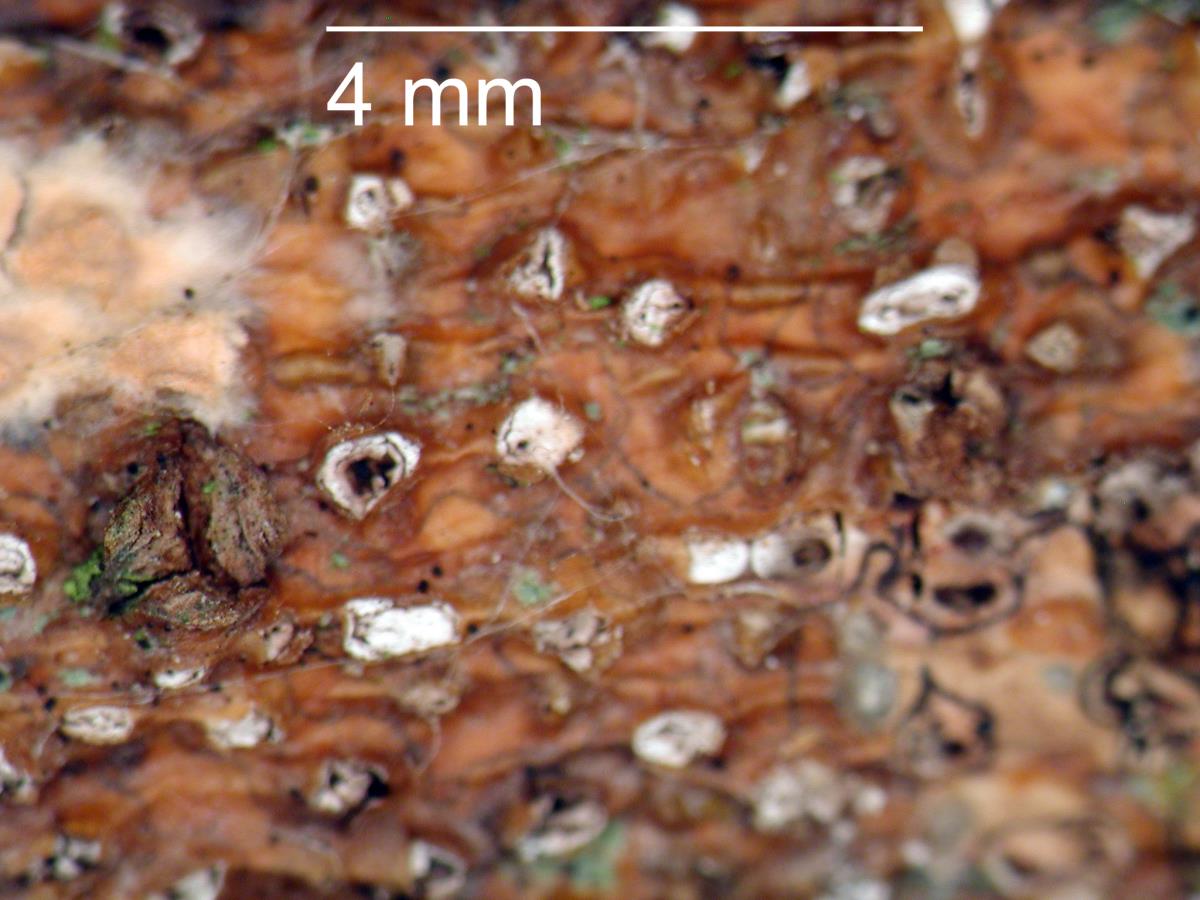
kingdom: Fungi
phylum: Ascomycota
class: Sordariomycetes
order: Diaporthales
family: Diaporthaceae
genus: Diaporthe
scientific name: Diaporthe
